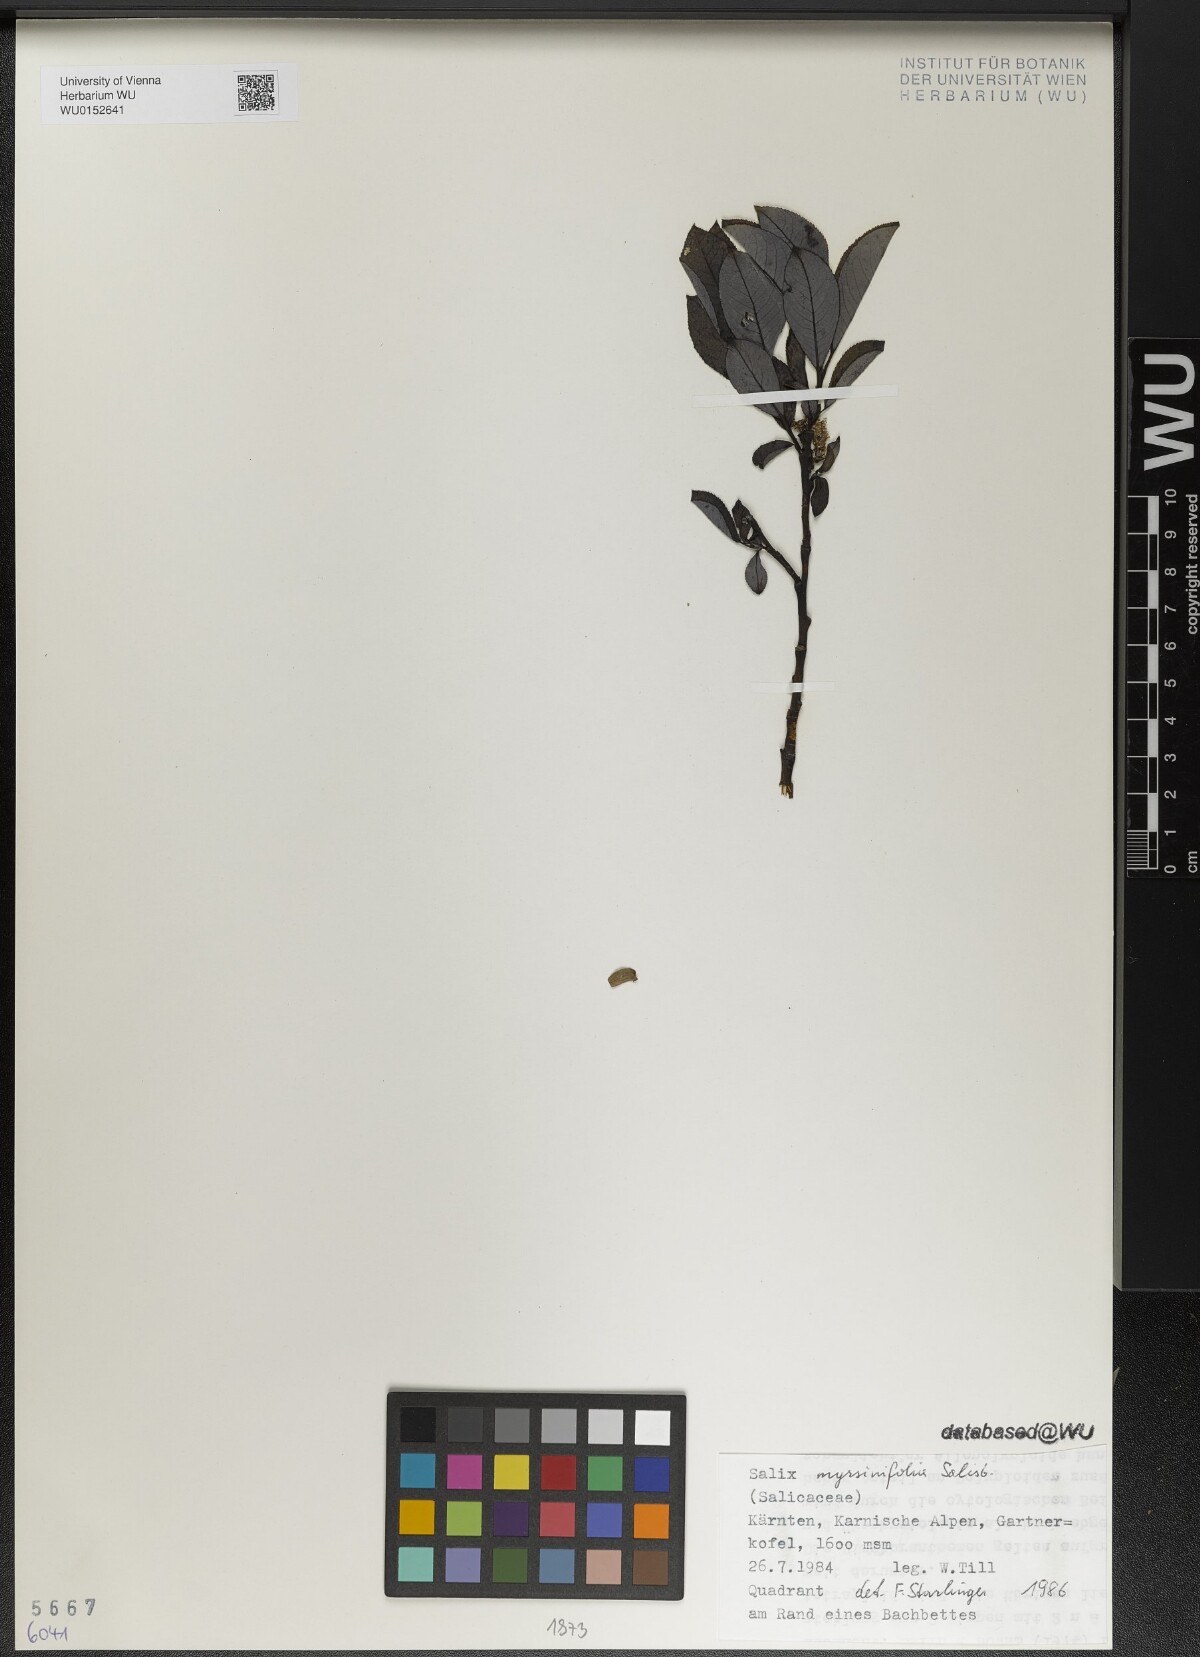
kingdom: Plantae
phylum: Tracheophyta
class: Magnoliopsida
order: Malpighiales
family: Salicaceae
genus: Salix
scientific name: Salix myrsinifolia
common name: Dark-leaved willow
